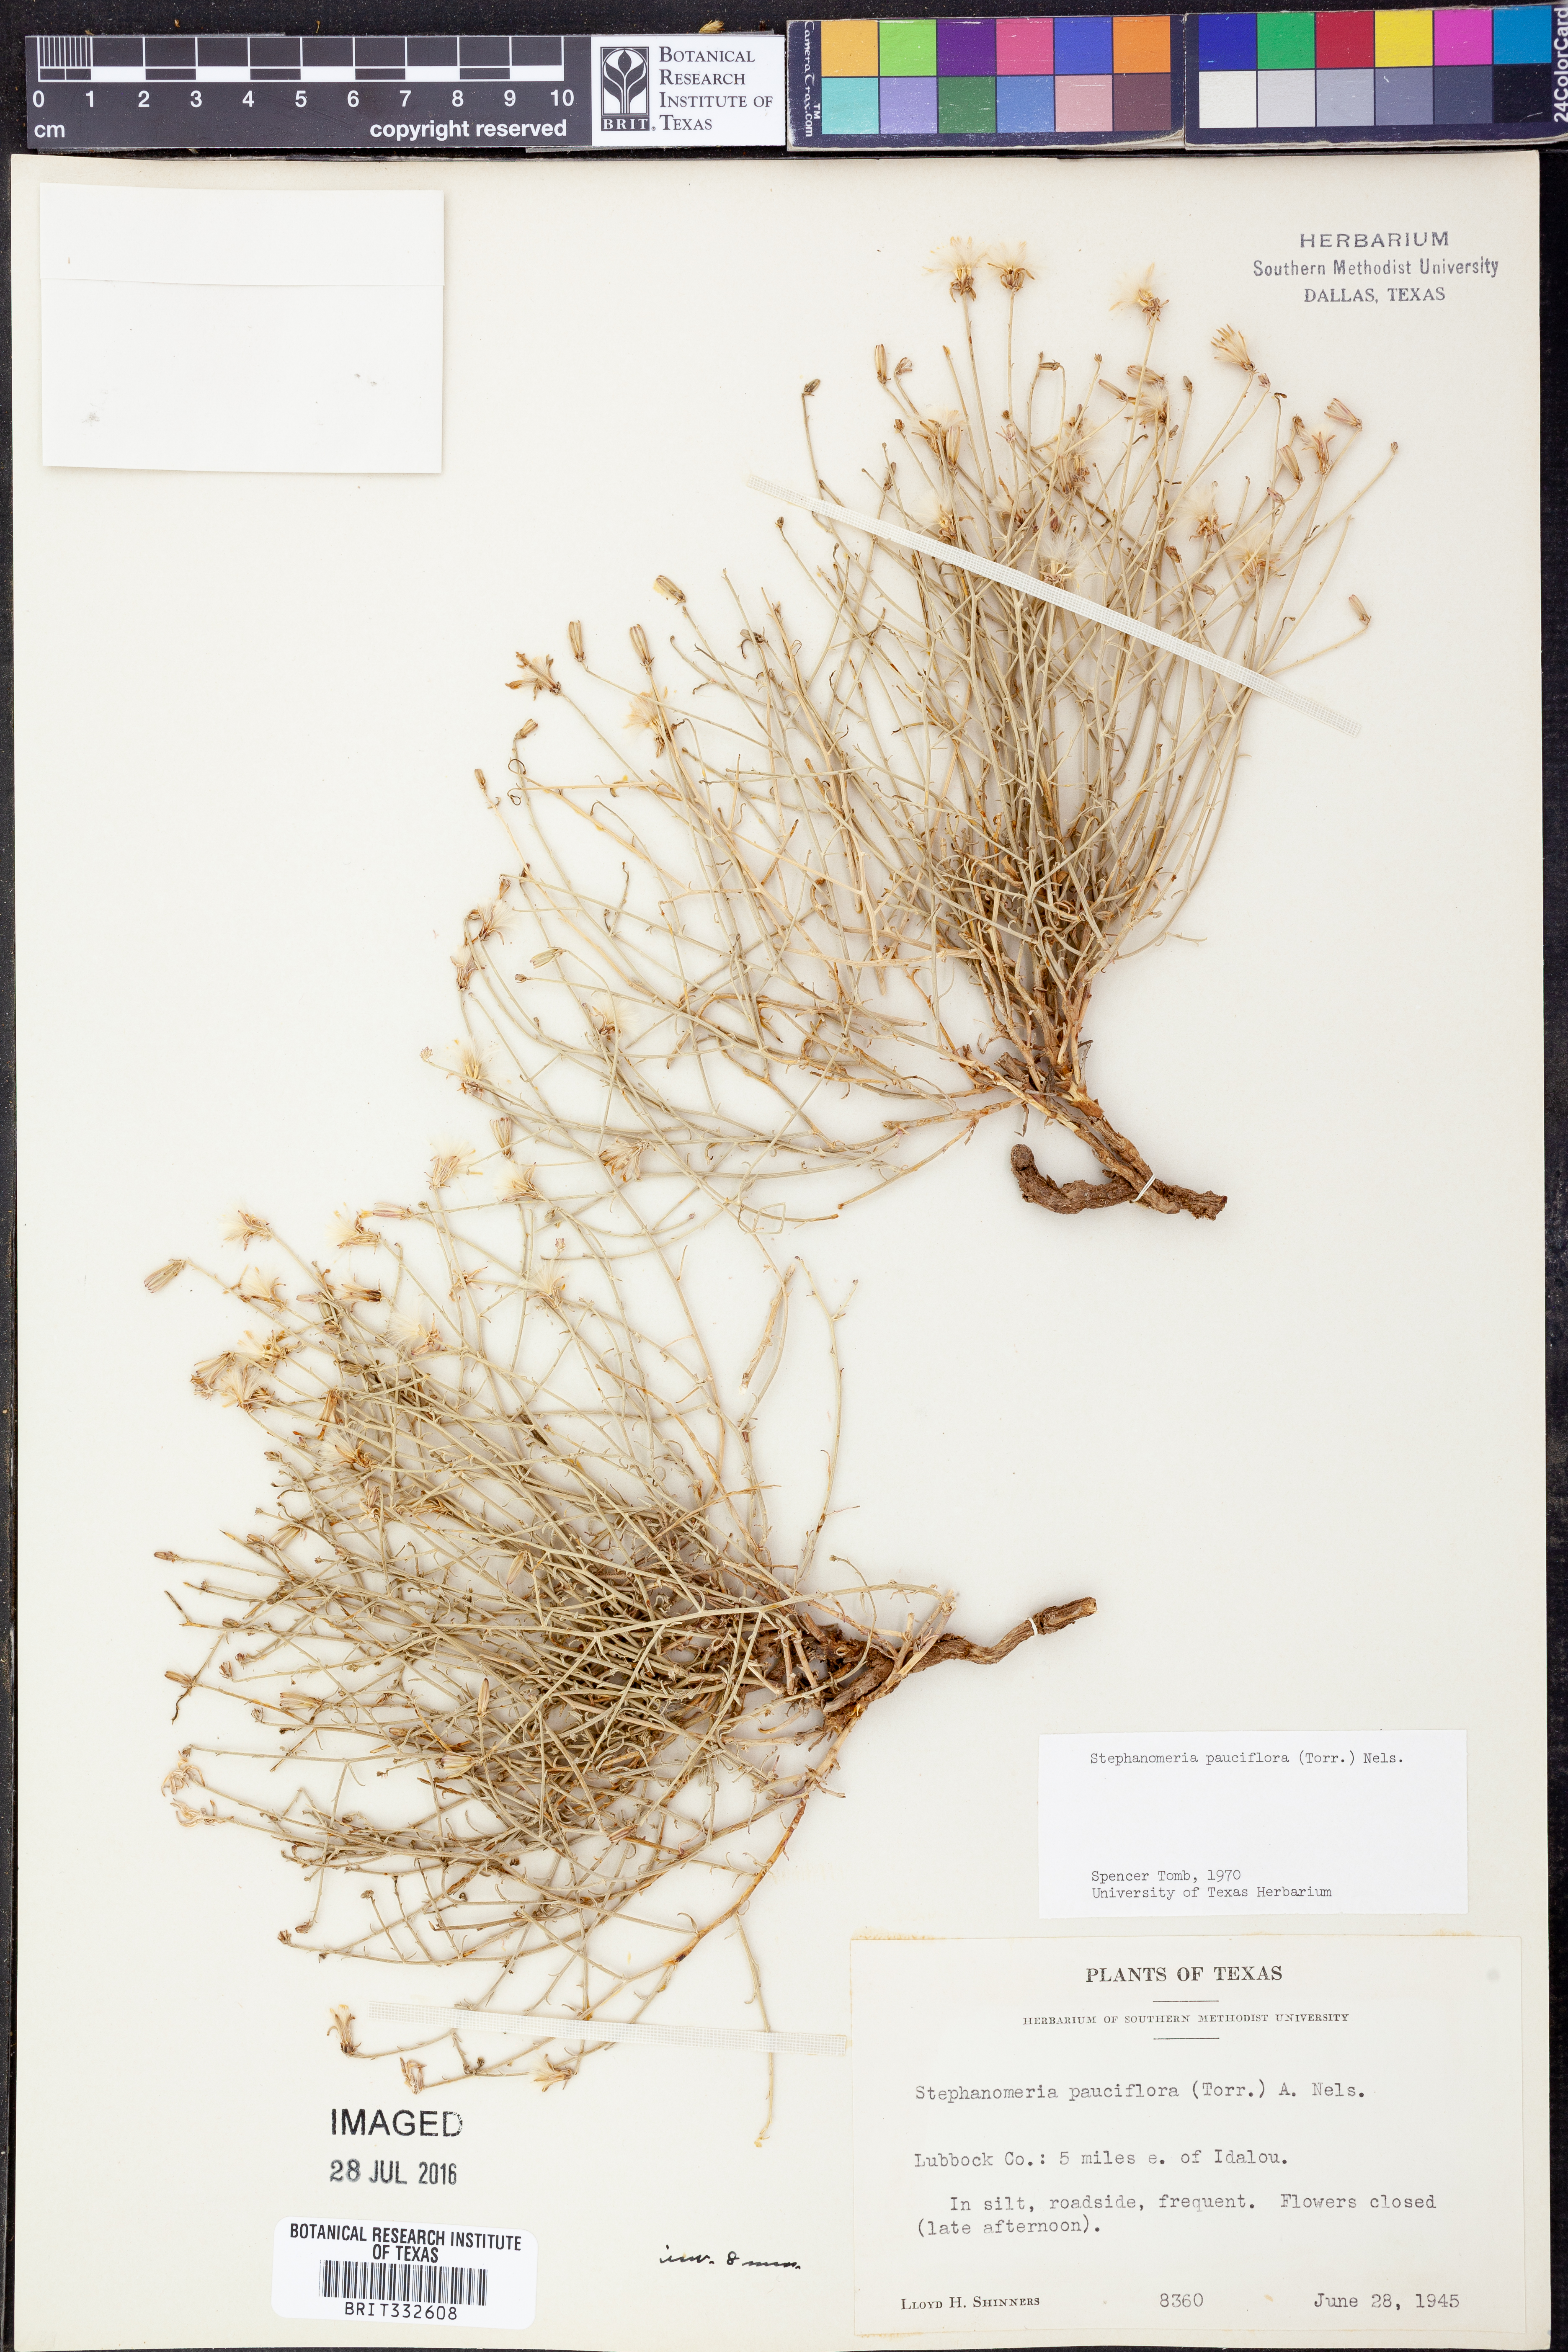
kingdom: Plantae
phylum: Tracheophyta
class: Magnoliopsida
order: Asterales
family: Asteraceae
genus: Stephanomeria
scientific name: Stephanomeria pauciflora
